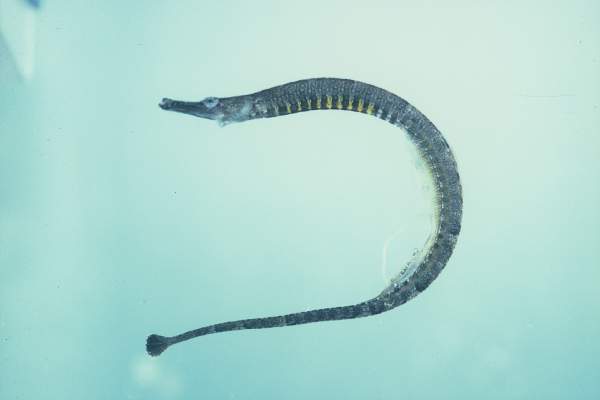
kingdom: Animalia
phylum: Chordata
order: Syngnathiformes
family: Syngnathidae
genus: Hippichthys
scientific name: Hippichthys spicifer
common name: Banded freshwater pipefish
